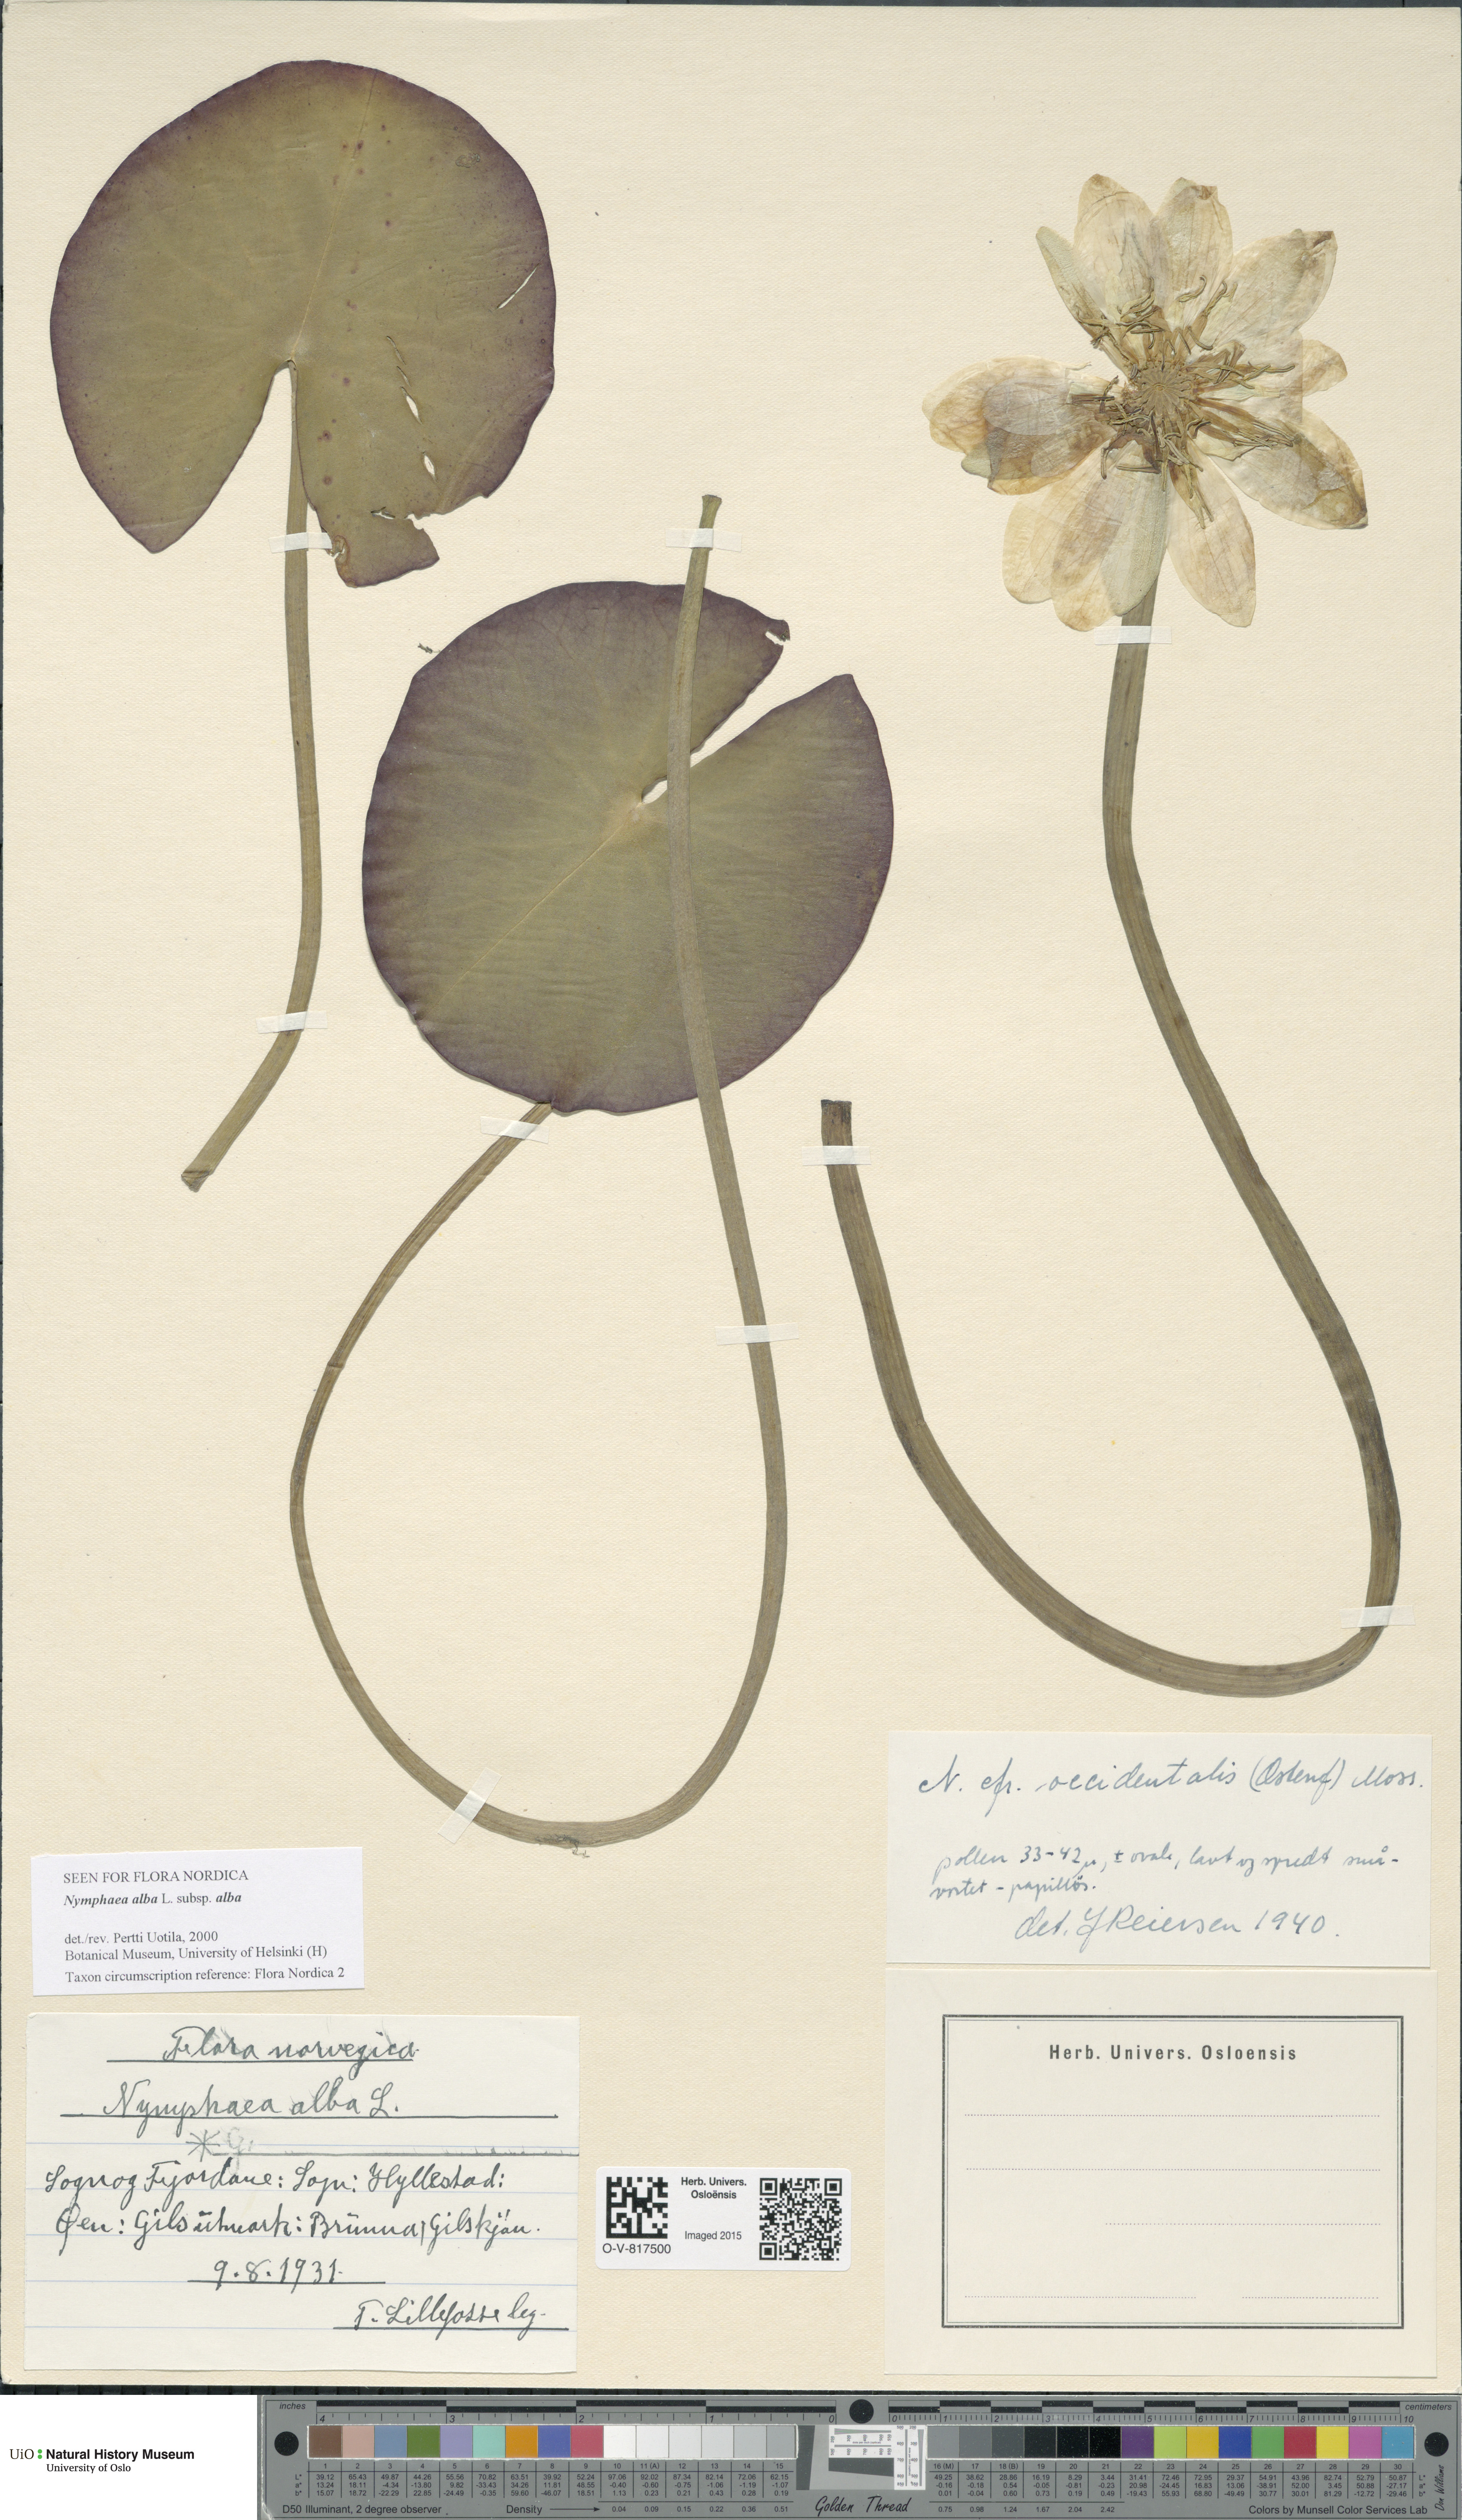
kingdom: Plantae
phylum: Tracheophyta
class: Magnoliopsida
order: Nymphaeales
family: Nymphaeaceae
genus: Nymphaea
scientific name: Nymphaea alba
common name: White water-lily
